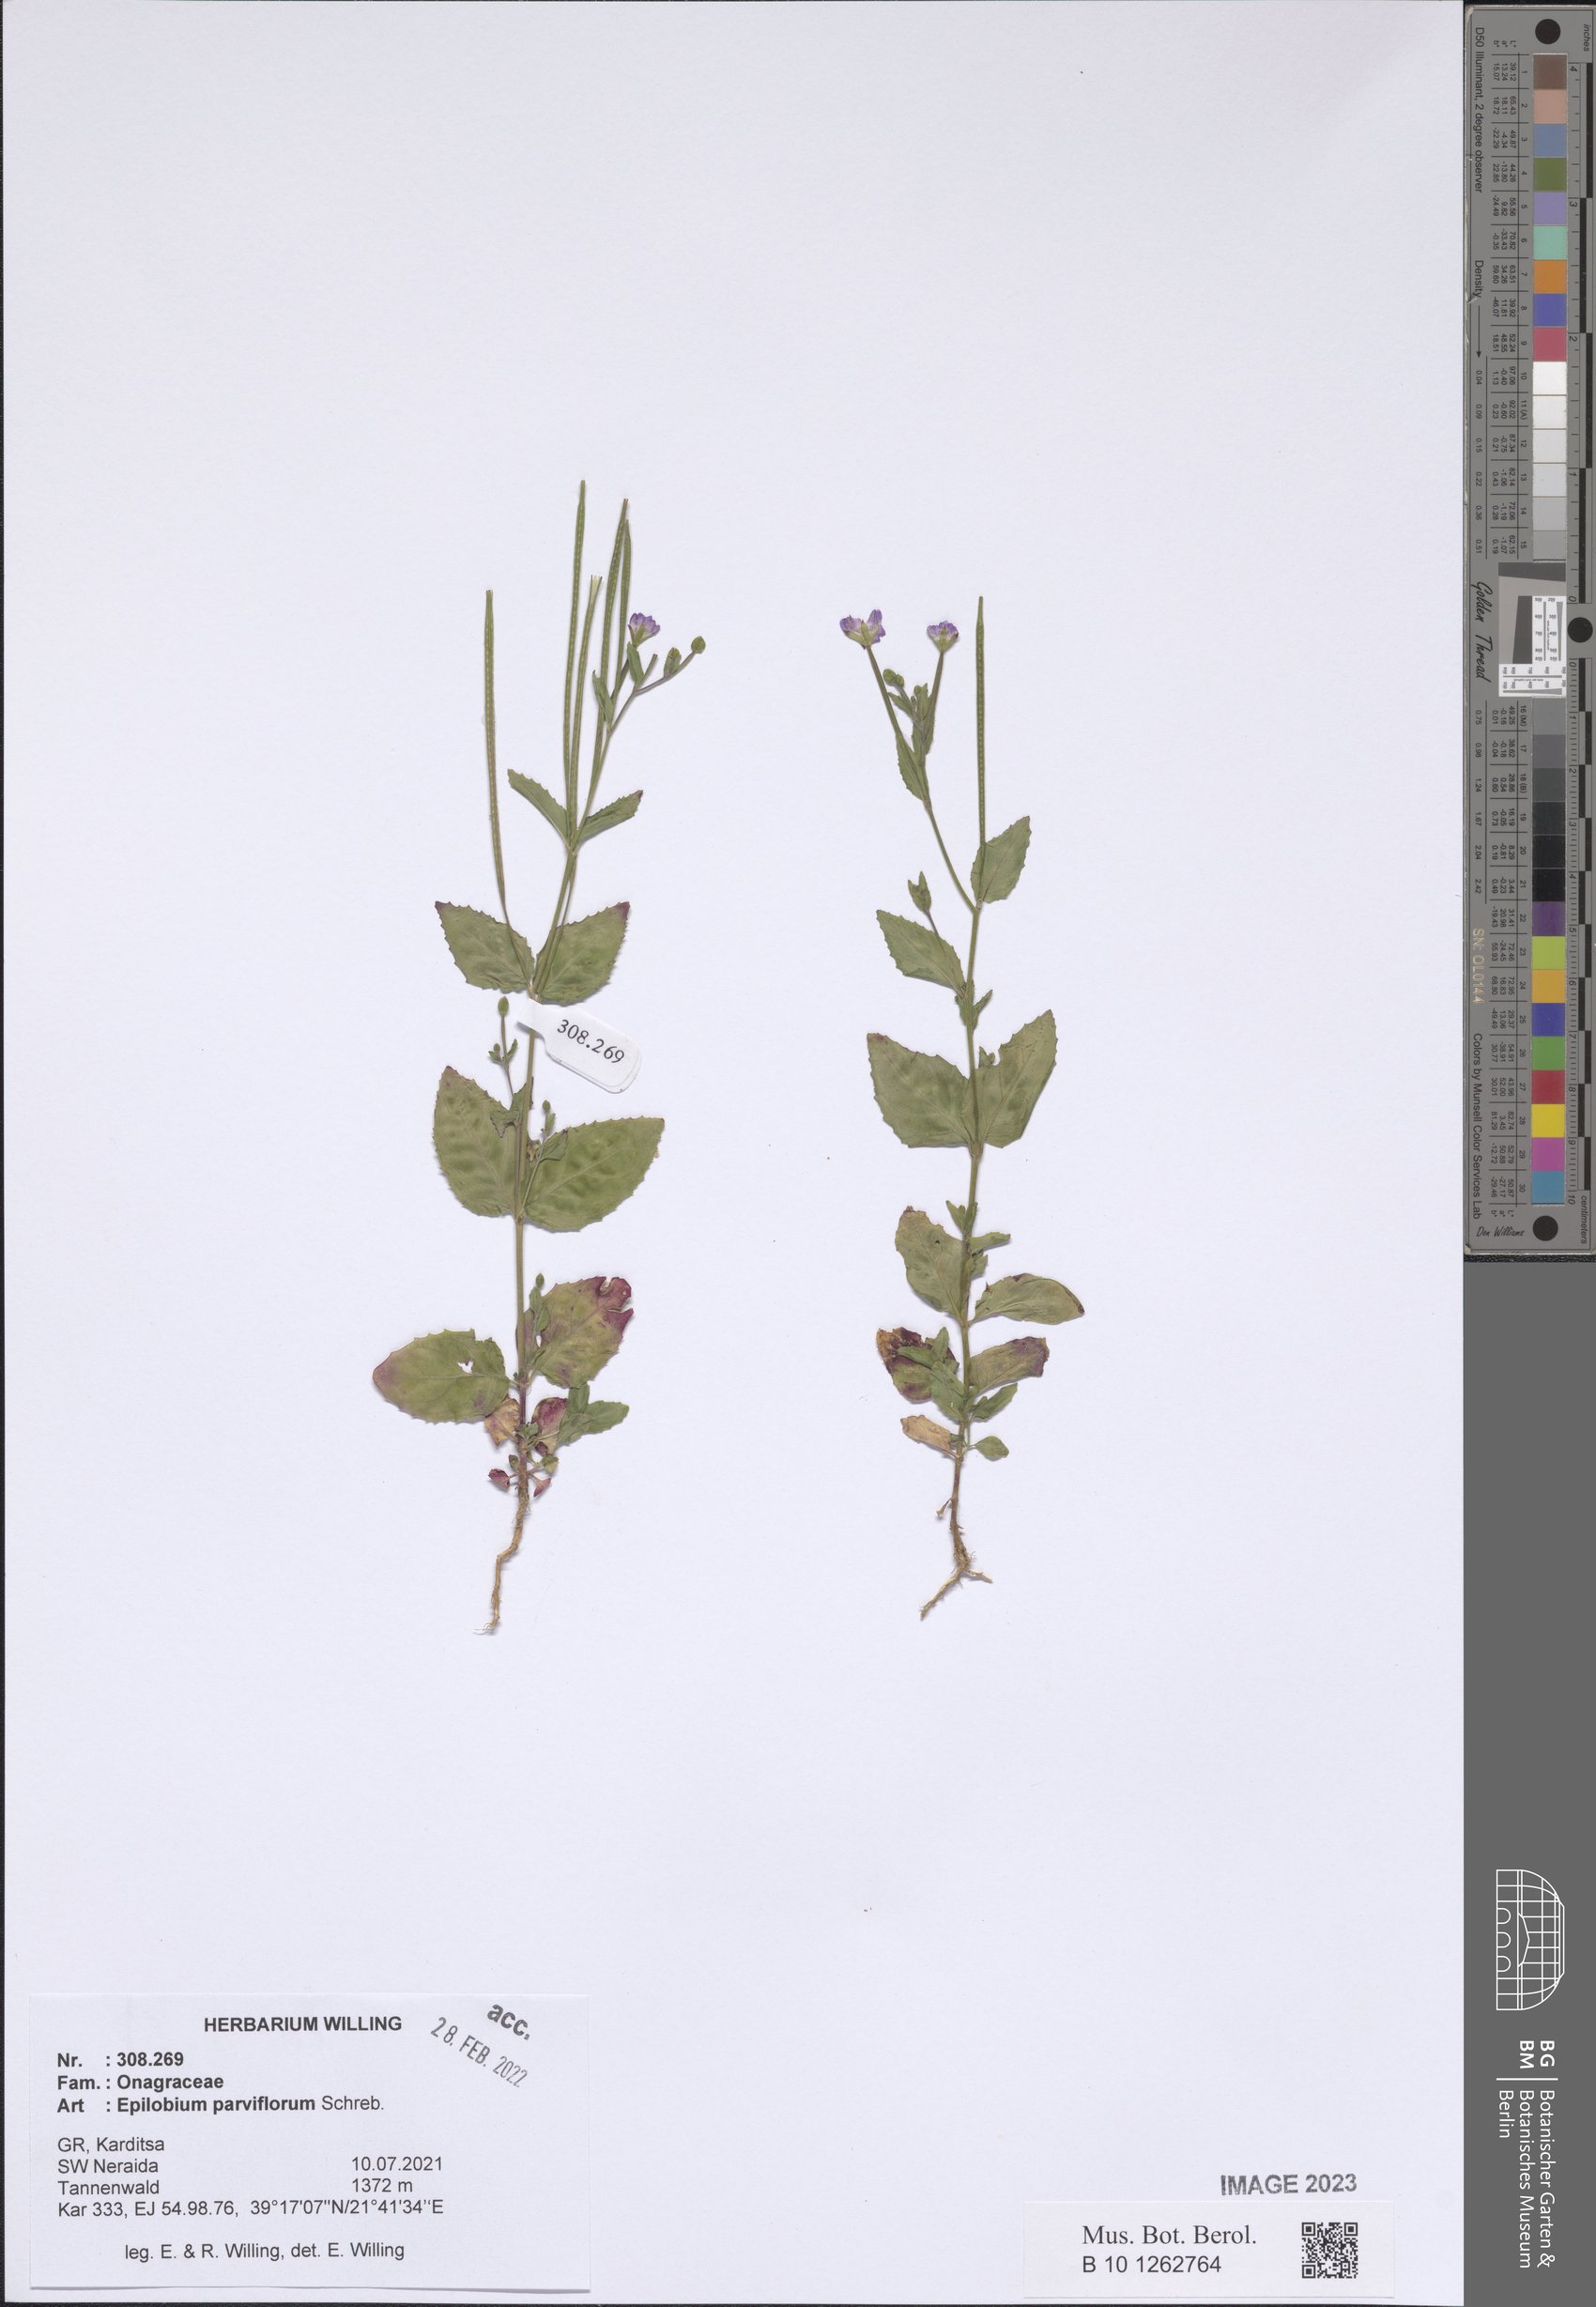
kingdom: Plantae
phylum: Tracheophyta
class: Magnoliopsida
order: Myrtales
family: Onagraceae
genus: Epilobium
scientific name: Epilobium parviflorum
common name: Hoary willowherb
